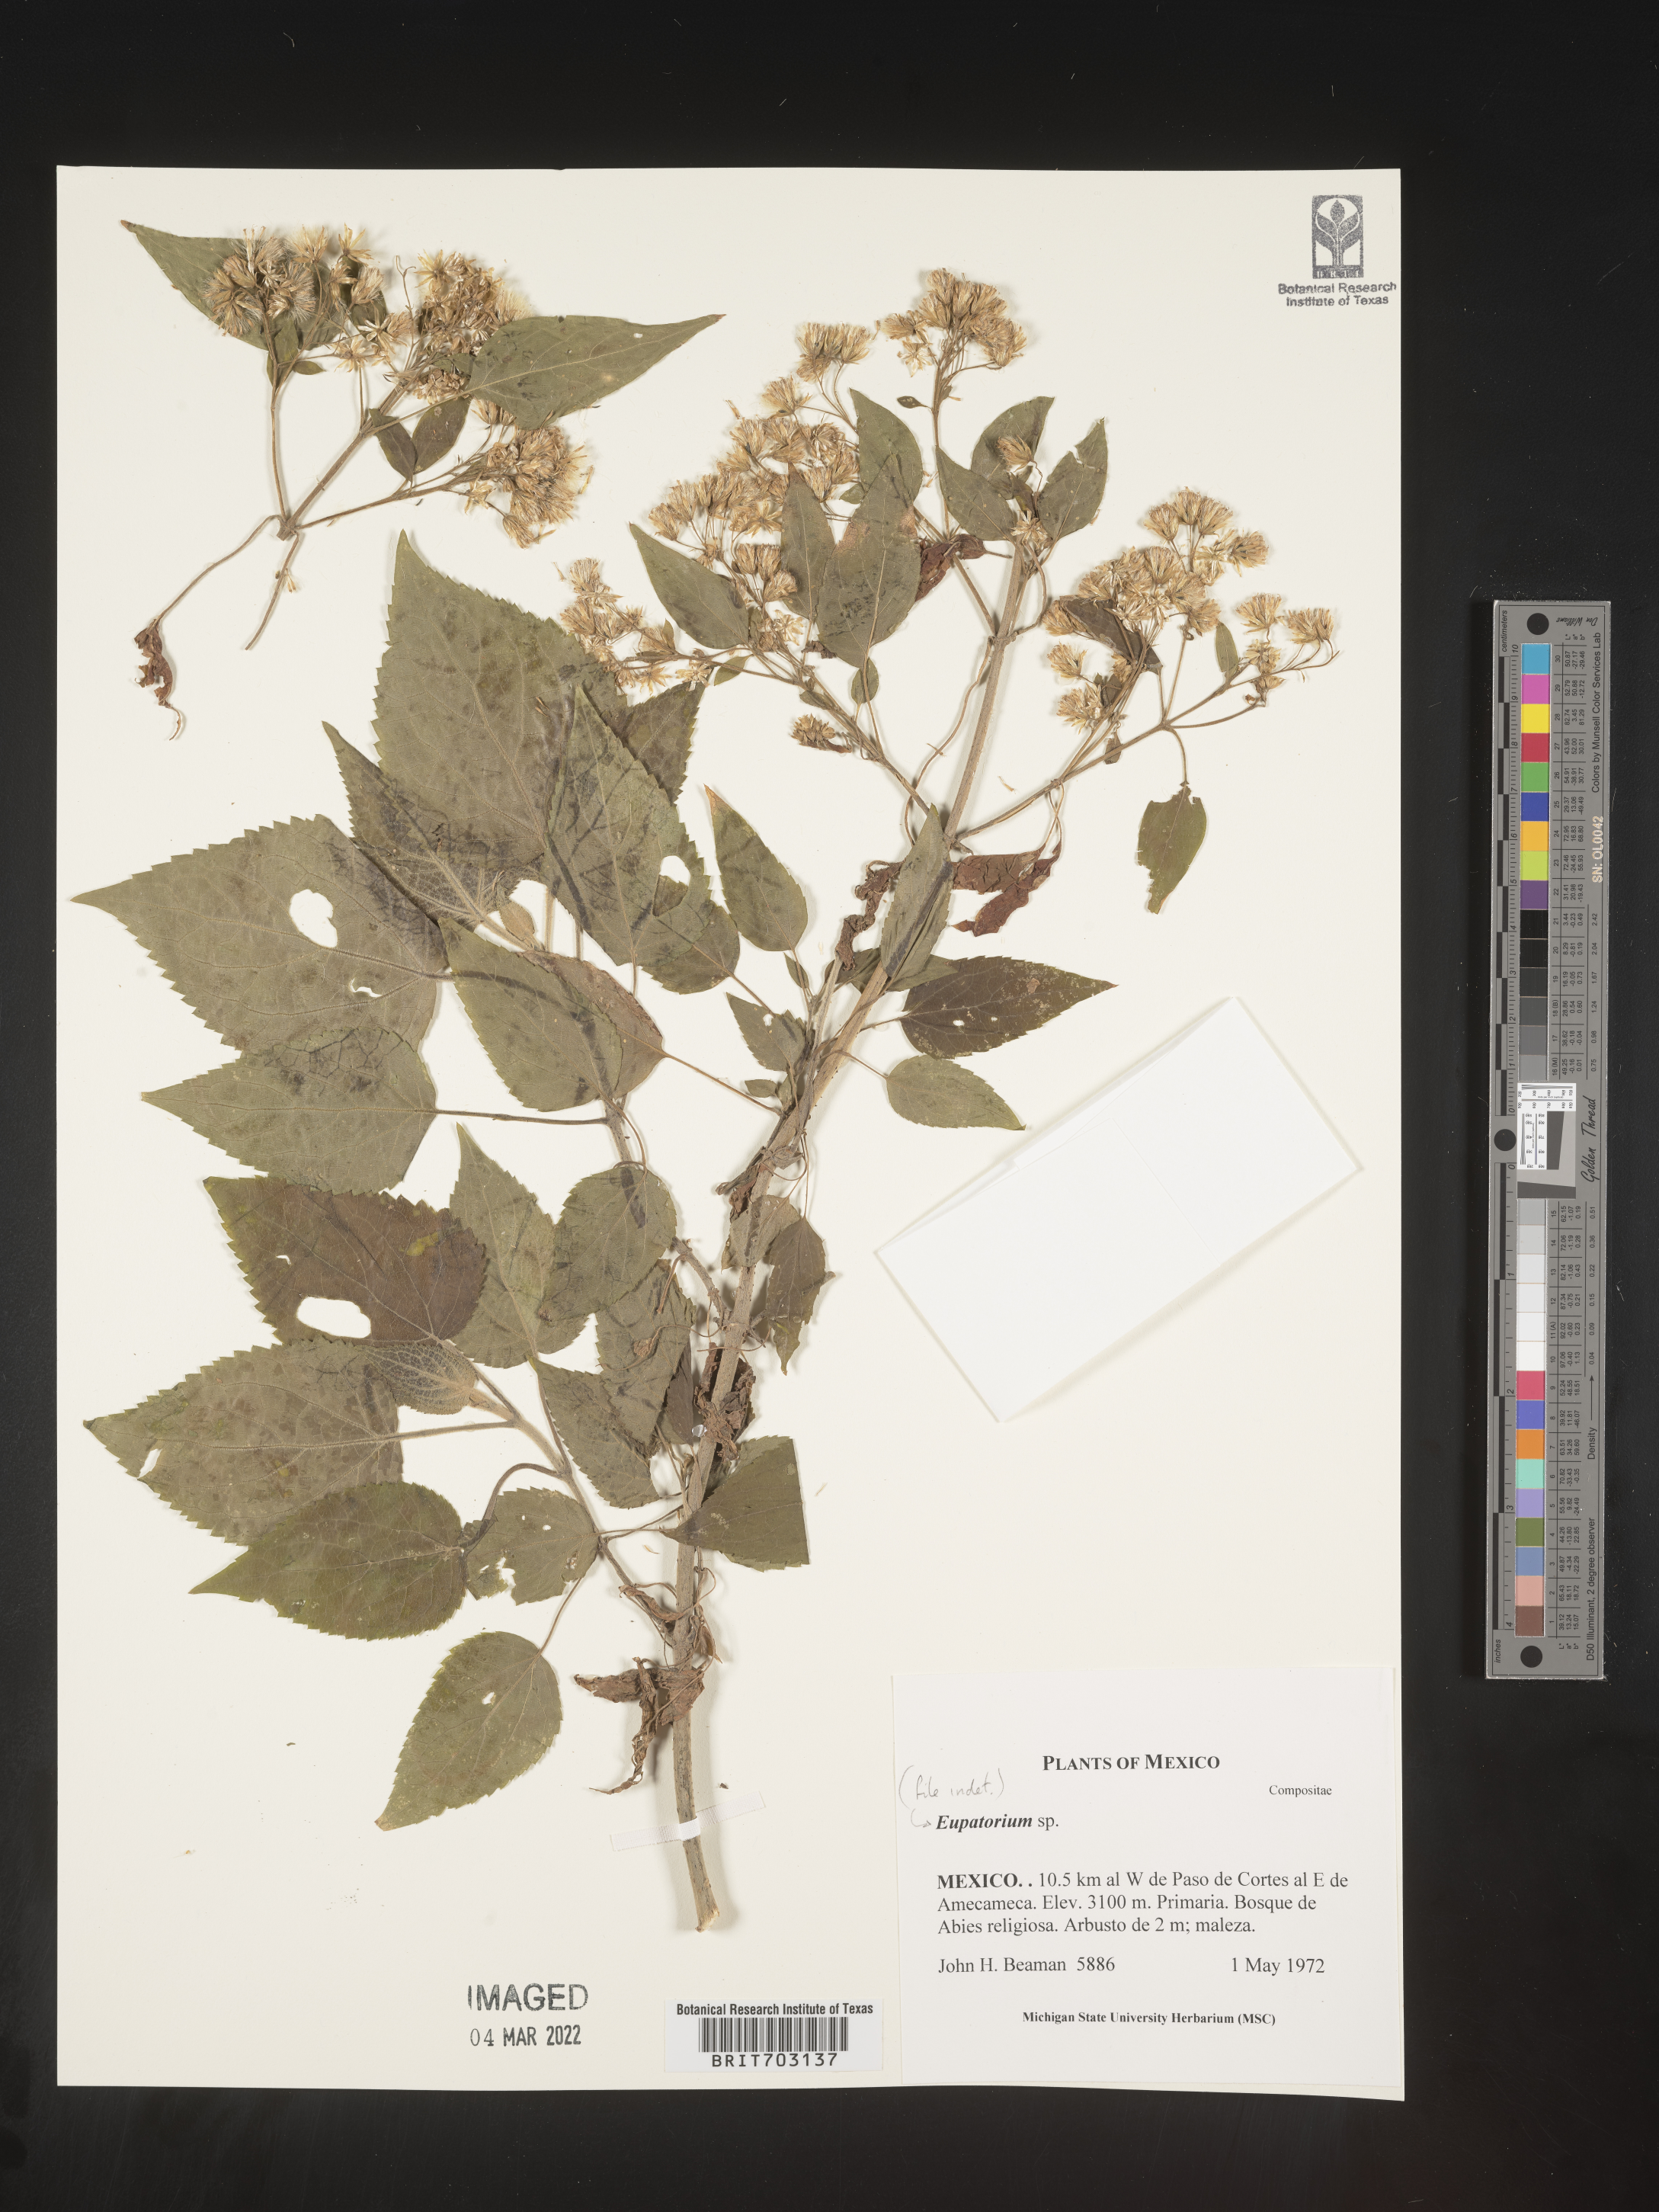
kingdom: Plantae
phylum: Tracheophyta
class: Magnoliopsida
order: Asterales
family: Asteraceae
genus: Eupatorium
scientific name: Eupatorium
